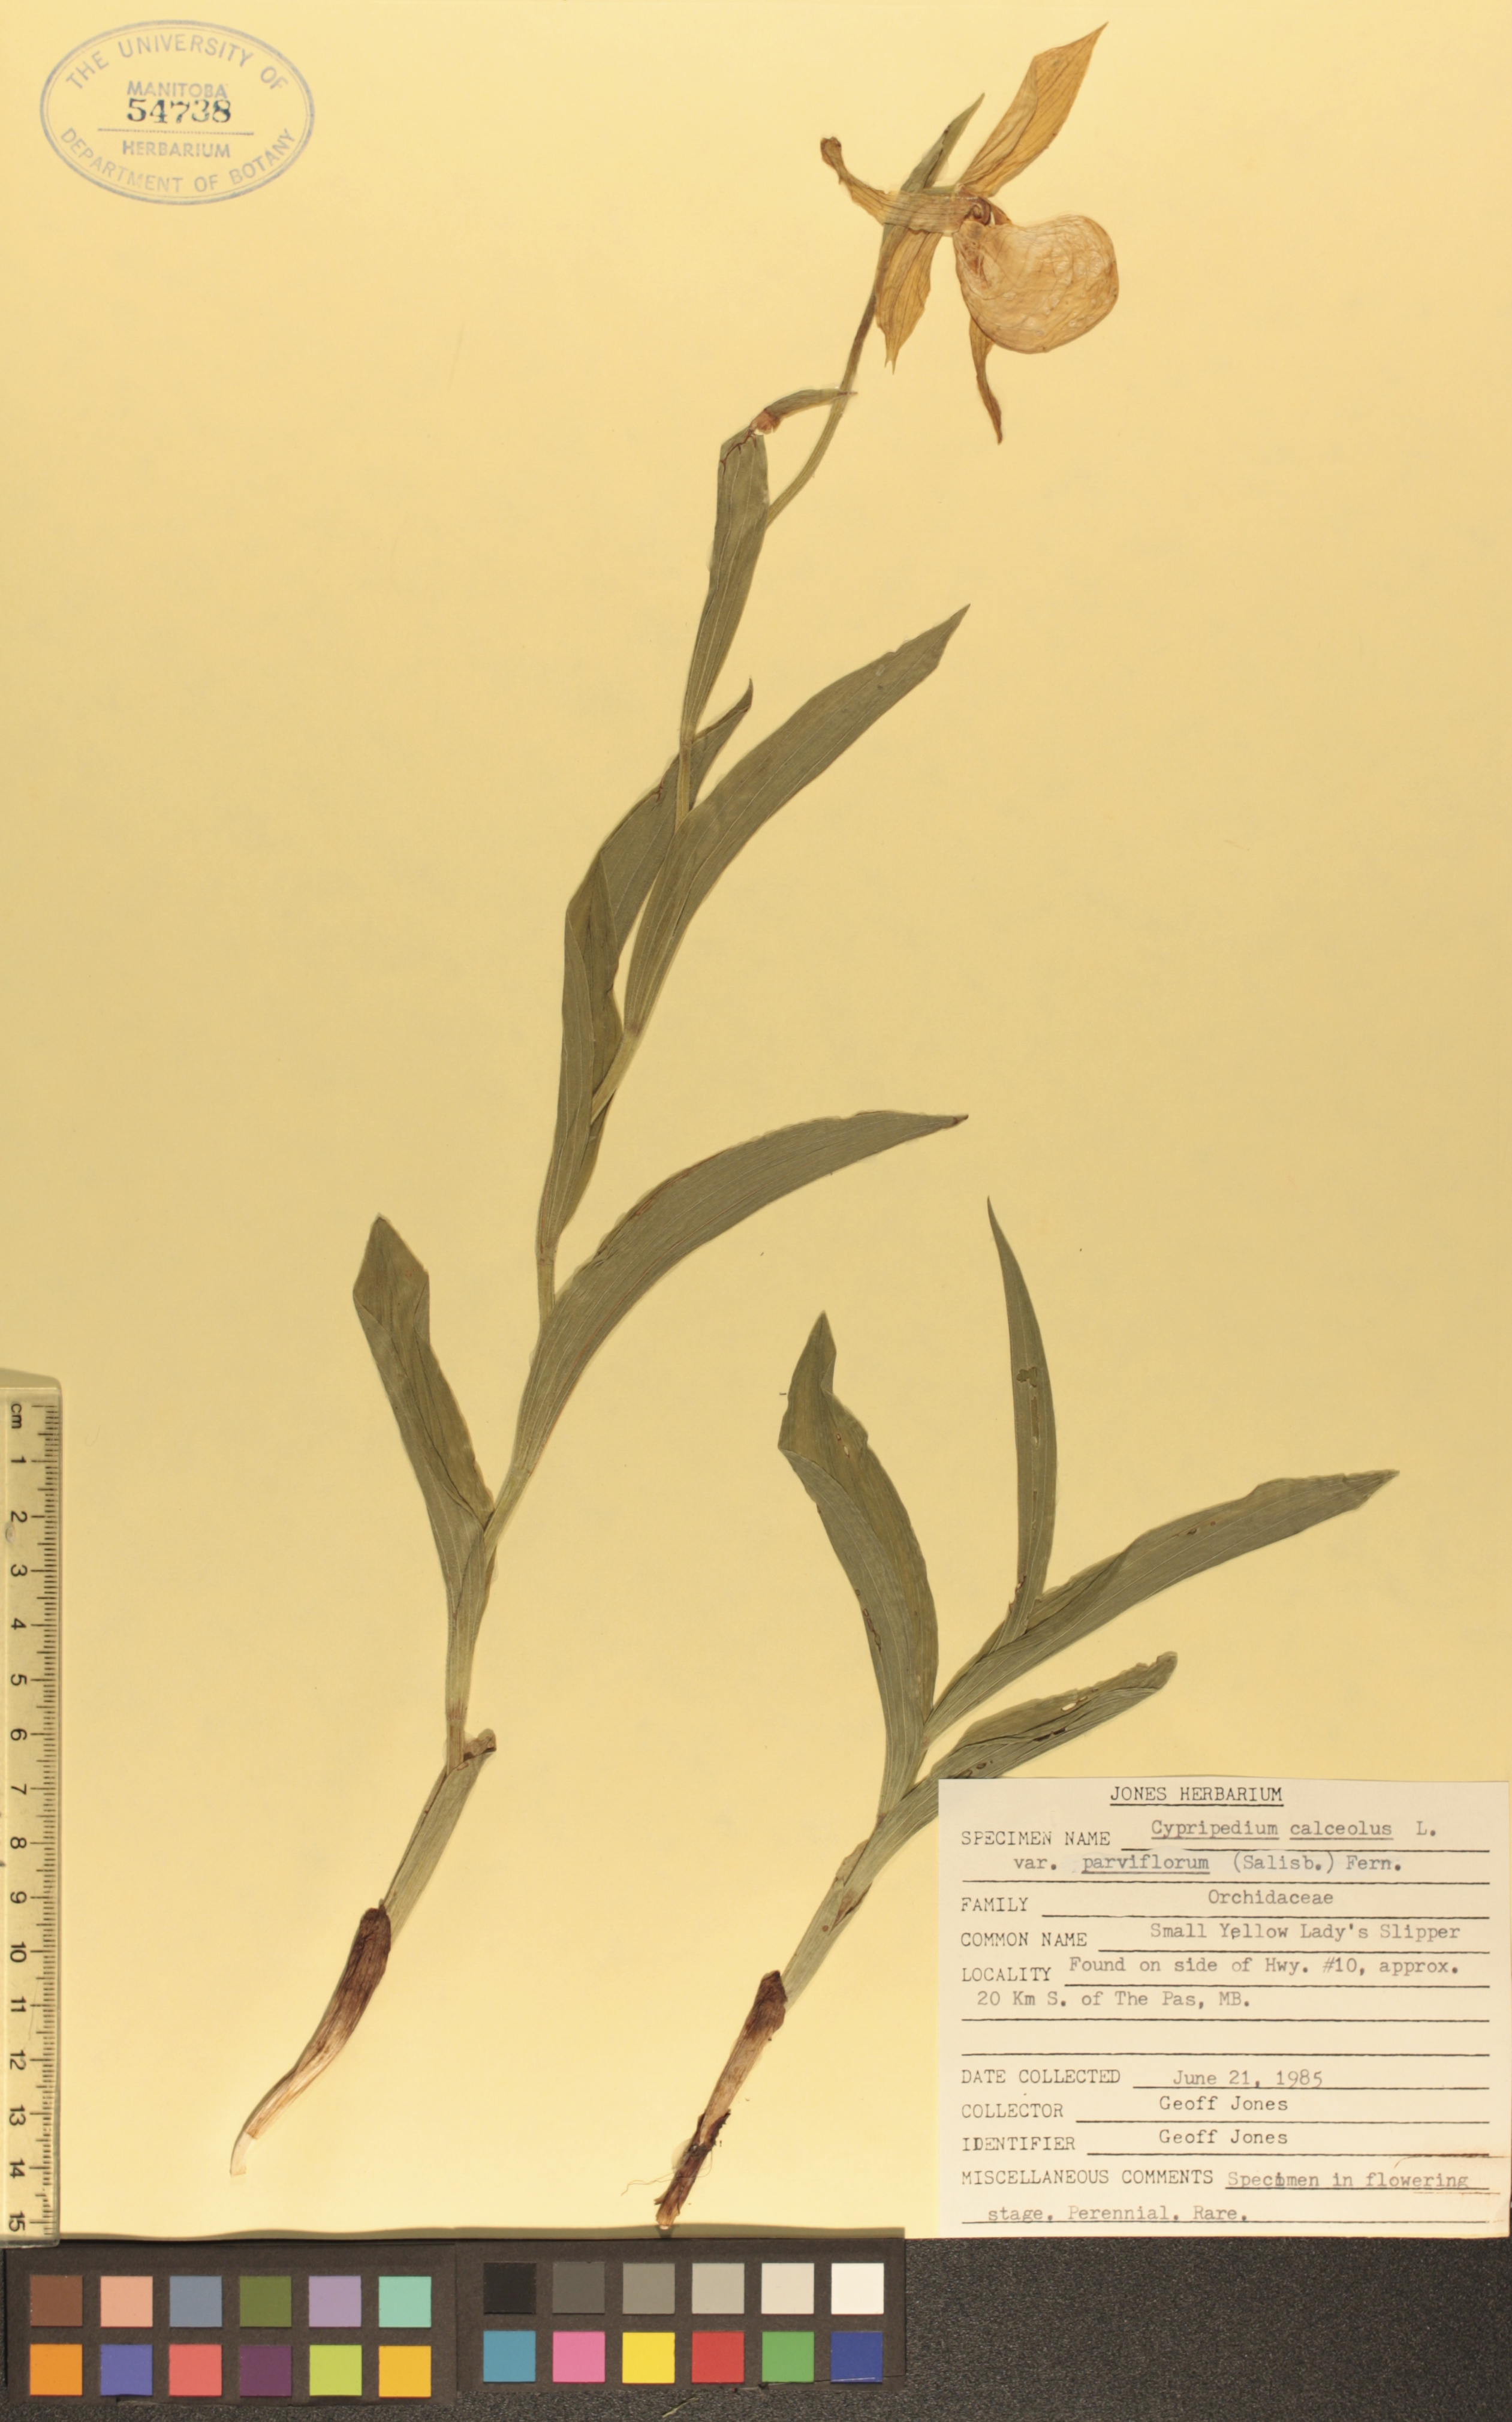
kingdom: Plantae
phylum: Tracheophyta
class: Liliopsida
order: Asparagales
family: Orchidaceae
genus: Cypripedium
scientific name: Cypripedium parviflorum
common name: American yellow lady's-slipper
